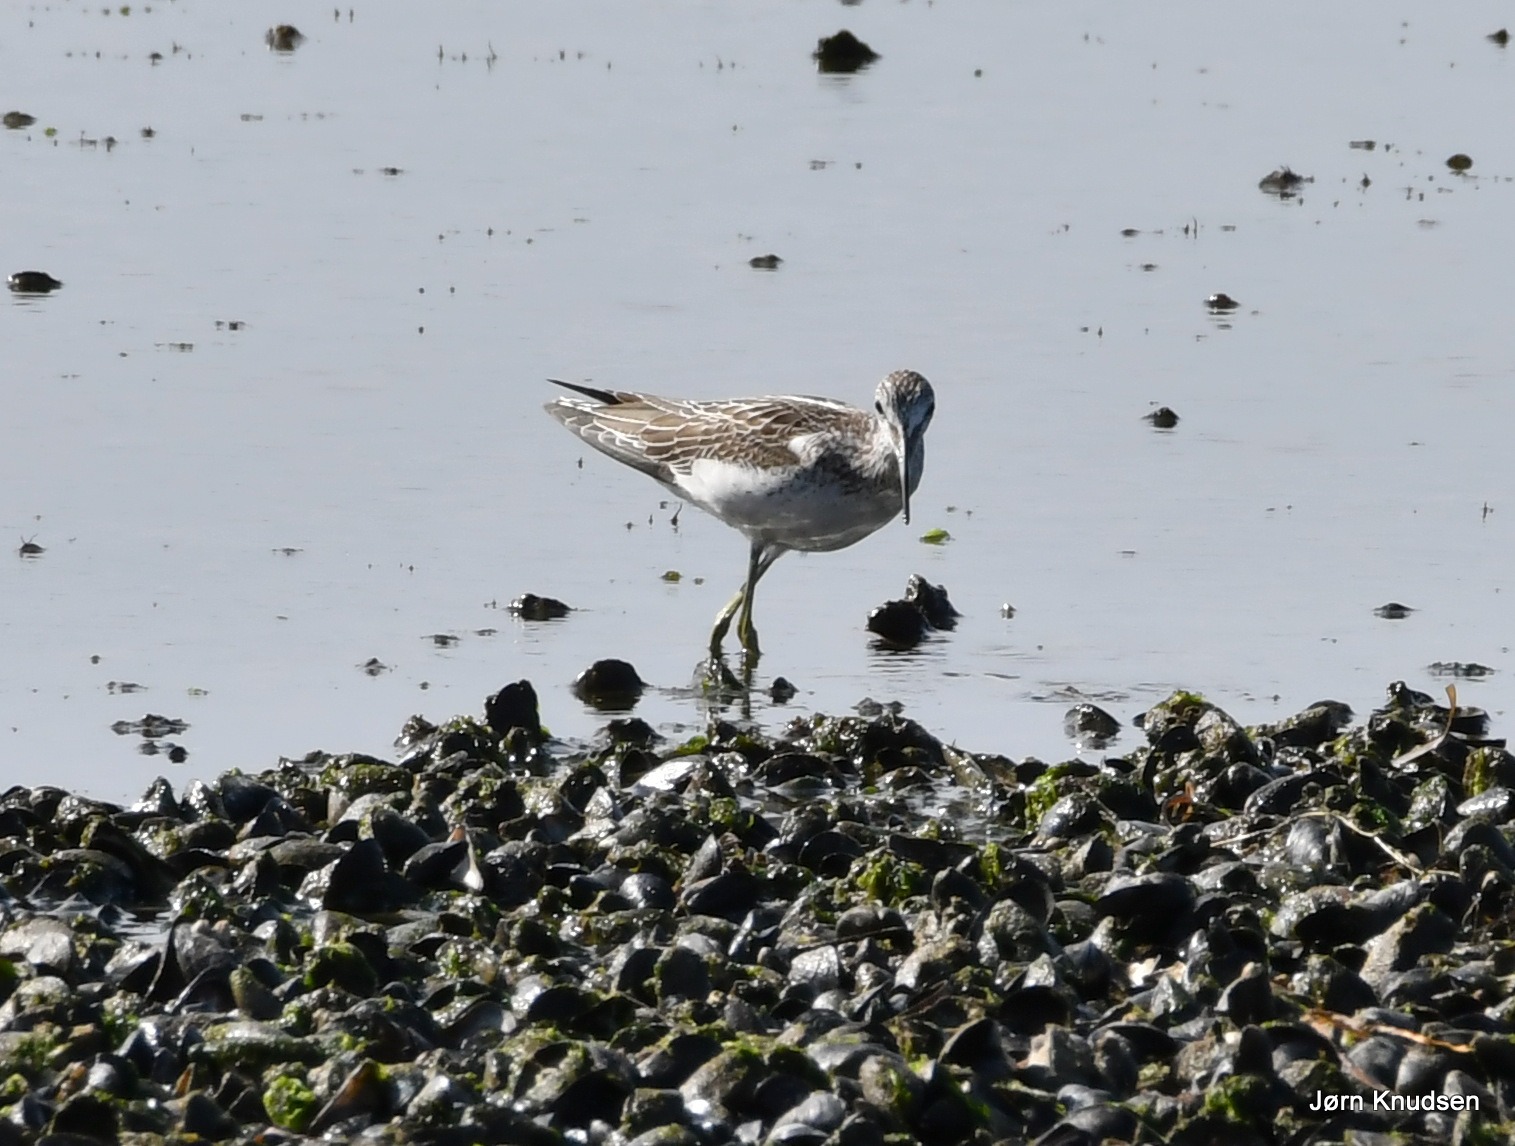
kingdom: Animalia
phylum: Chordata
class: Aves
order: Charadriiformes
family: Scolopacidae
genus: Tringa
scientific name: Tringa nebularia
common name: Hvidklire
